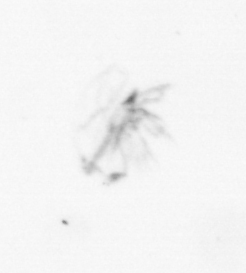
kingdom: Animalia
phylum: Arthropoda
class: Maxillopoda
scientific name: Maxillopoda
